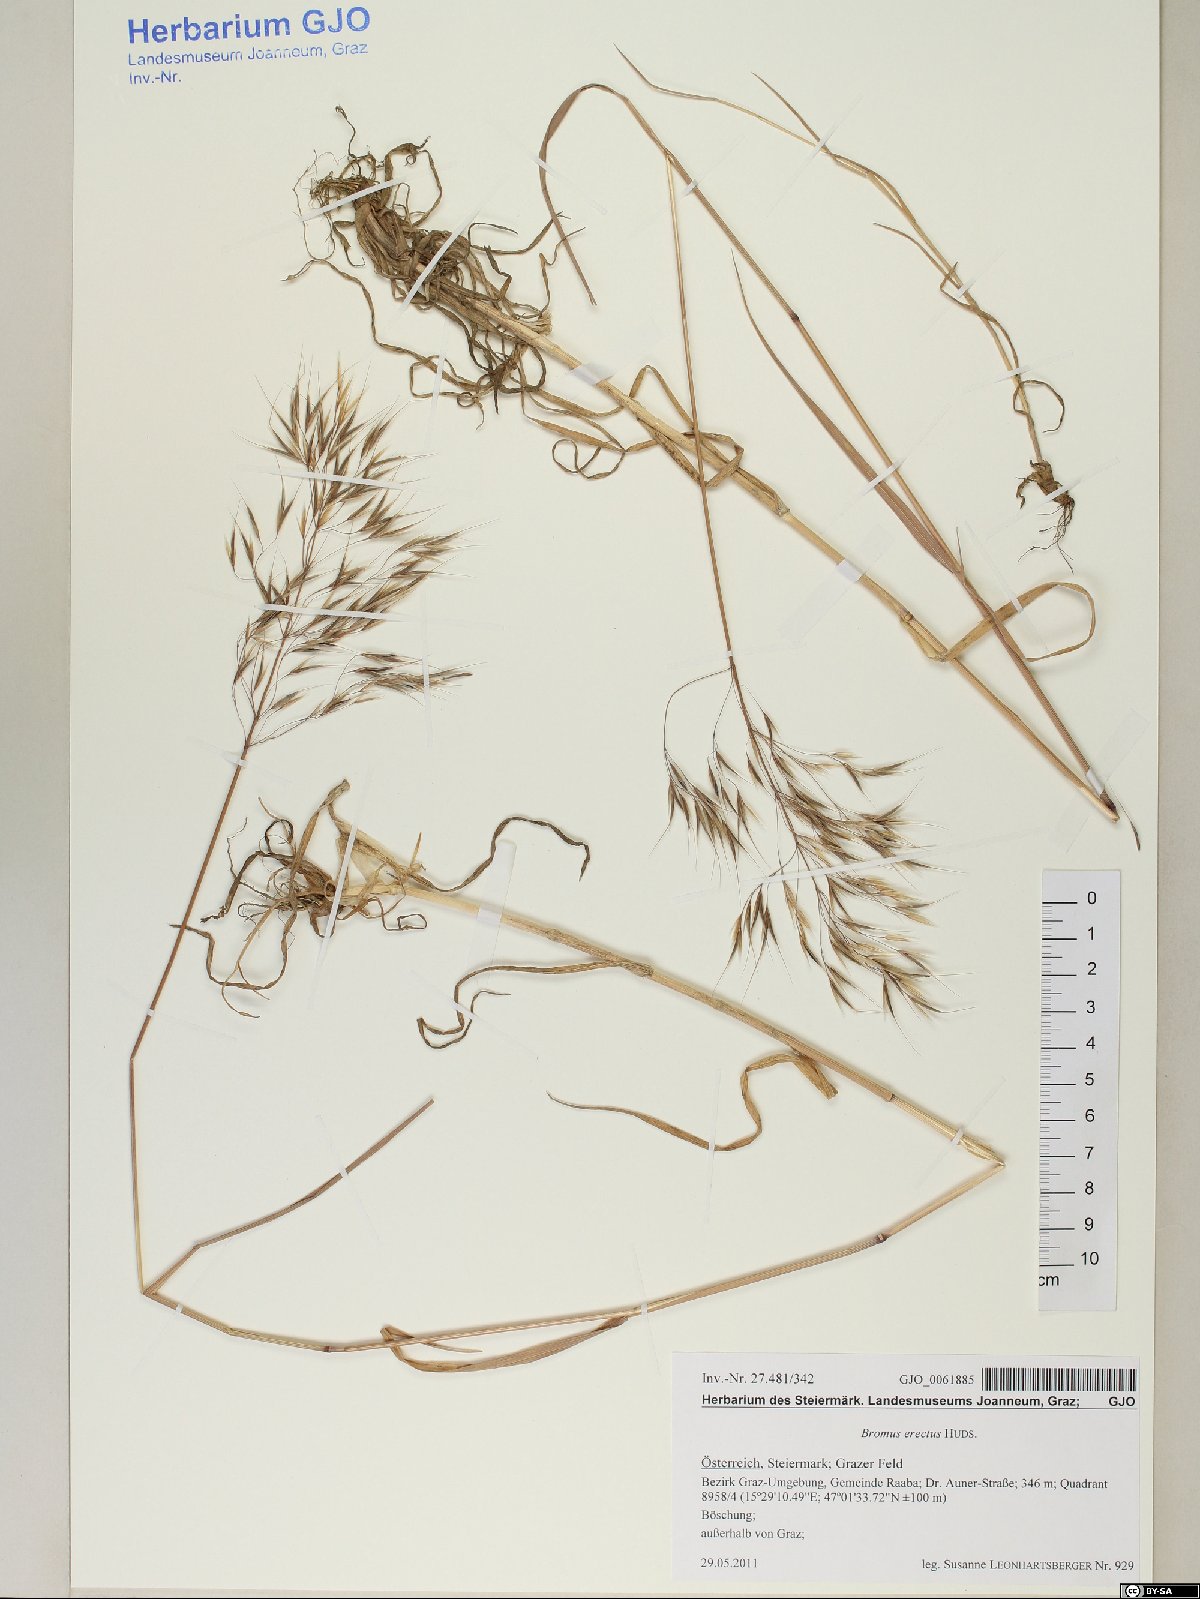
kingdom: Plantae
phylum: Tracheophyta
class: Liliopsida
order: Poales
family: Poaceae
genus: Bromus
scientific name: Bromus erectus
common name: Erect brome
